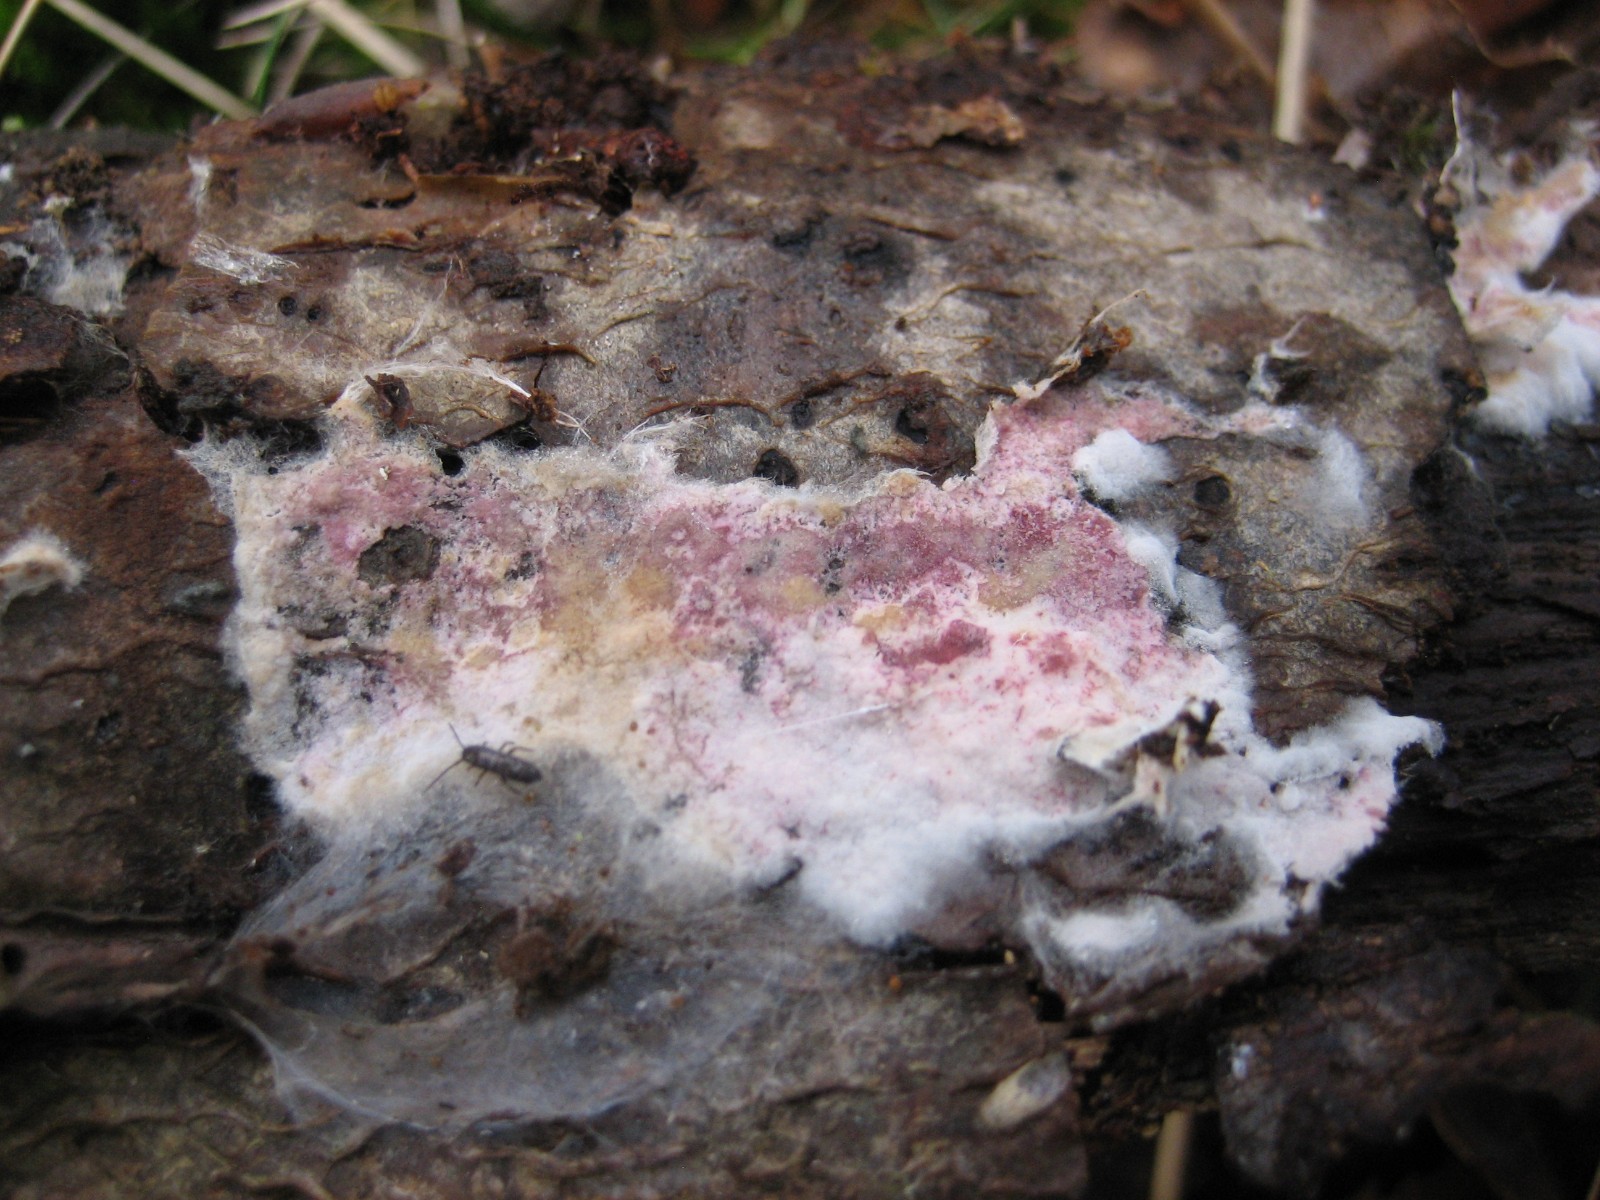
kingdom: Fungi
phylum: Ascomycota
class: Sordariomycetes
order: Hypocreales
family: Hypocreaceae
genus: Hypomyces
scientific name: Hypomyces rosellus
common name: rosa snylteskorpe
